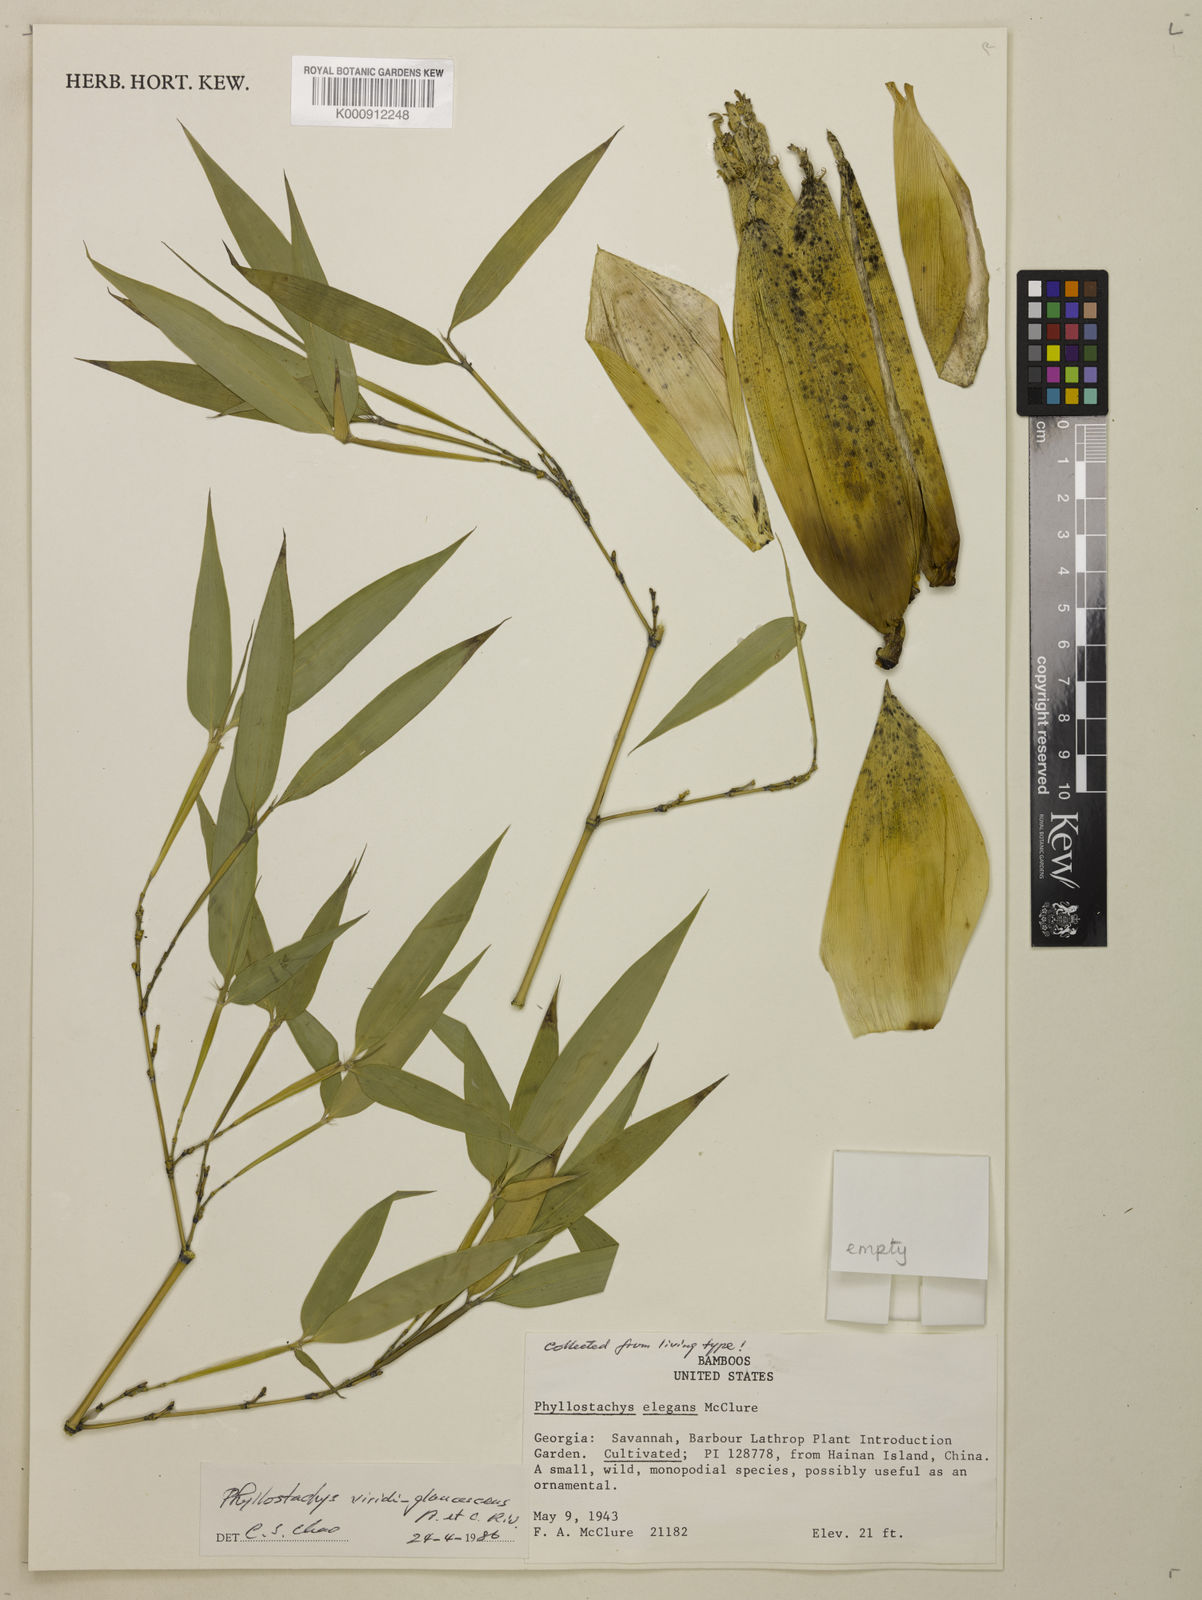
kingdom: Plantae
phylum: Tracheophyta
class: Liliopsida
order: Poales
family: Poaceae
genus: Phyllostachys
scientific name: Phyllostachys
